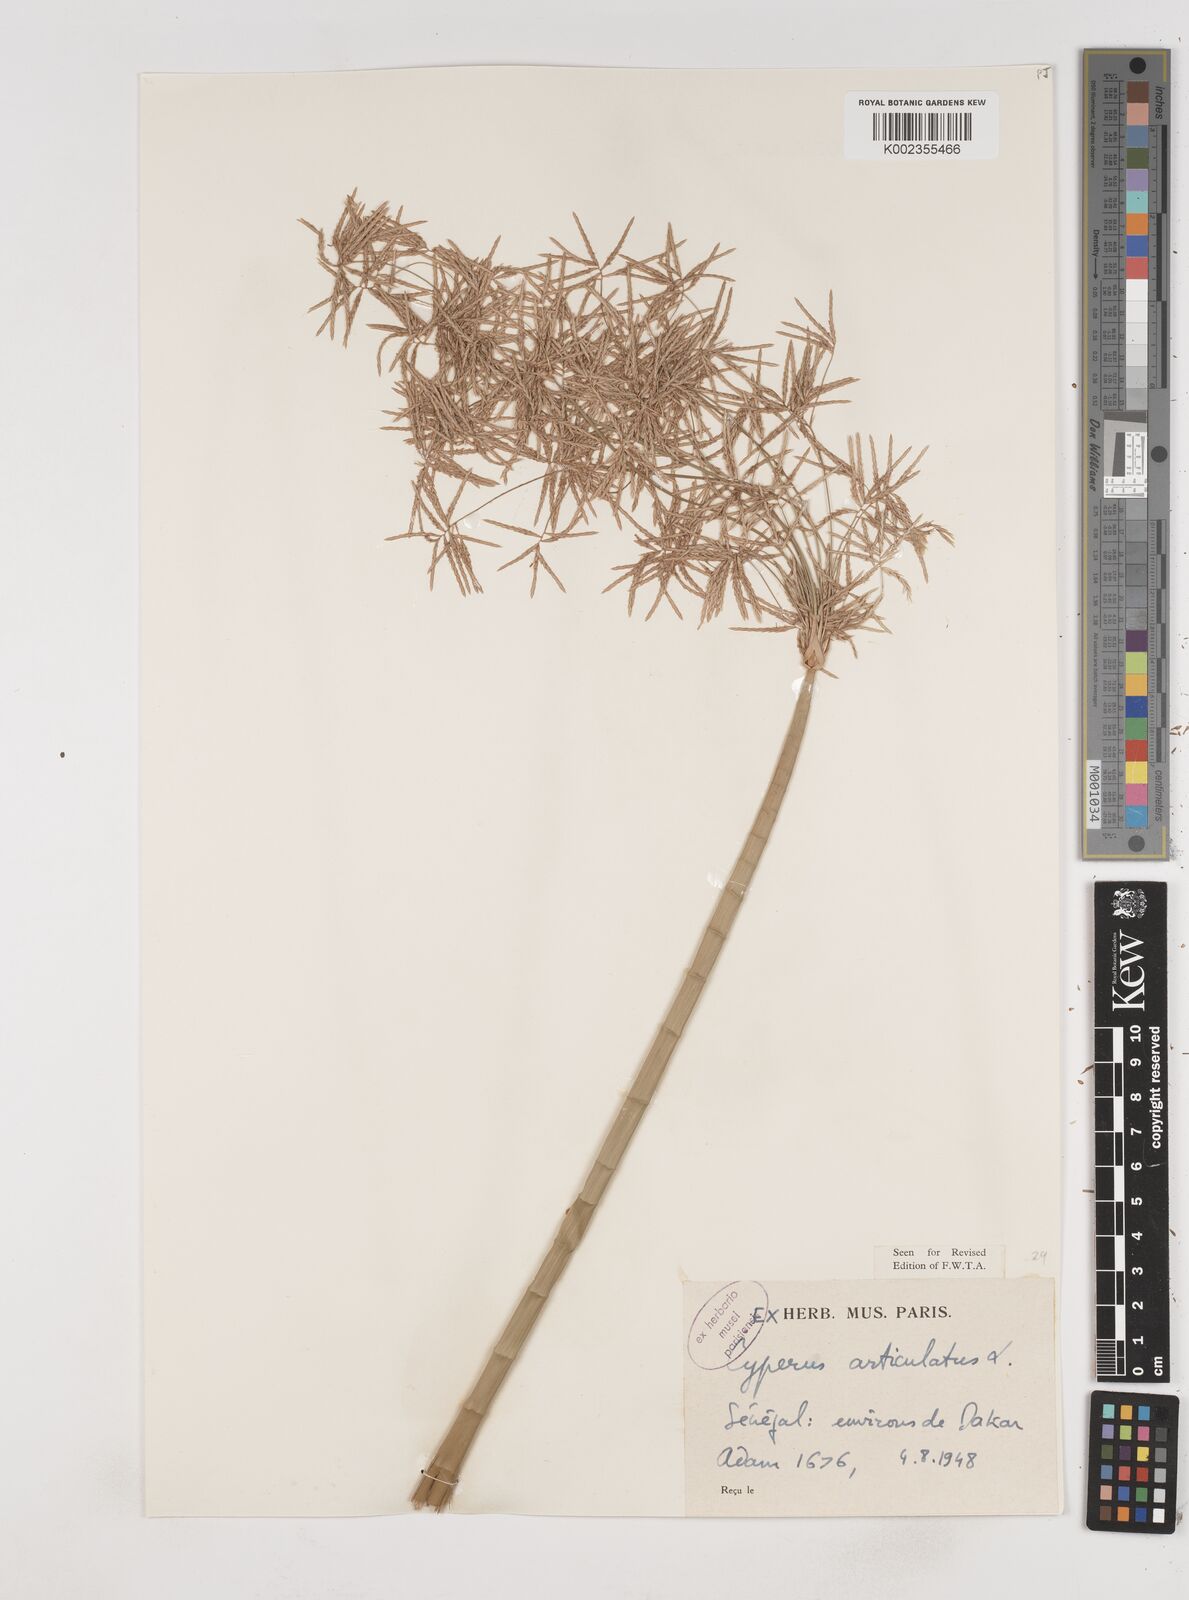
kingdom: Plantae
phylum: Tracheophyta
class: Liliopsida
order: Poales
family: Cyperaceae
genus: Cyperus
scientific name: Cyperus articulatus
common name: Jointed flatsedge
